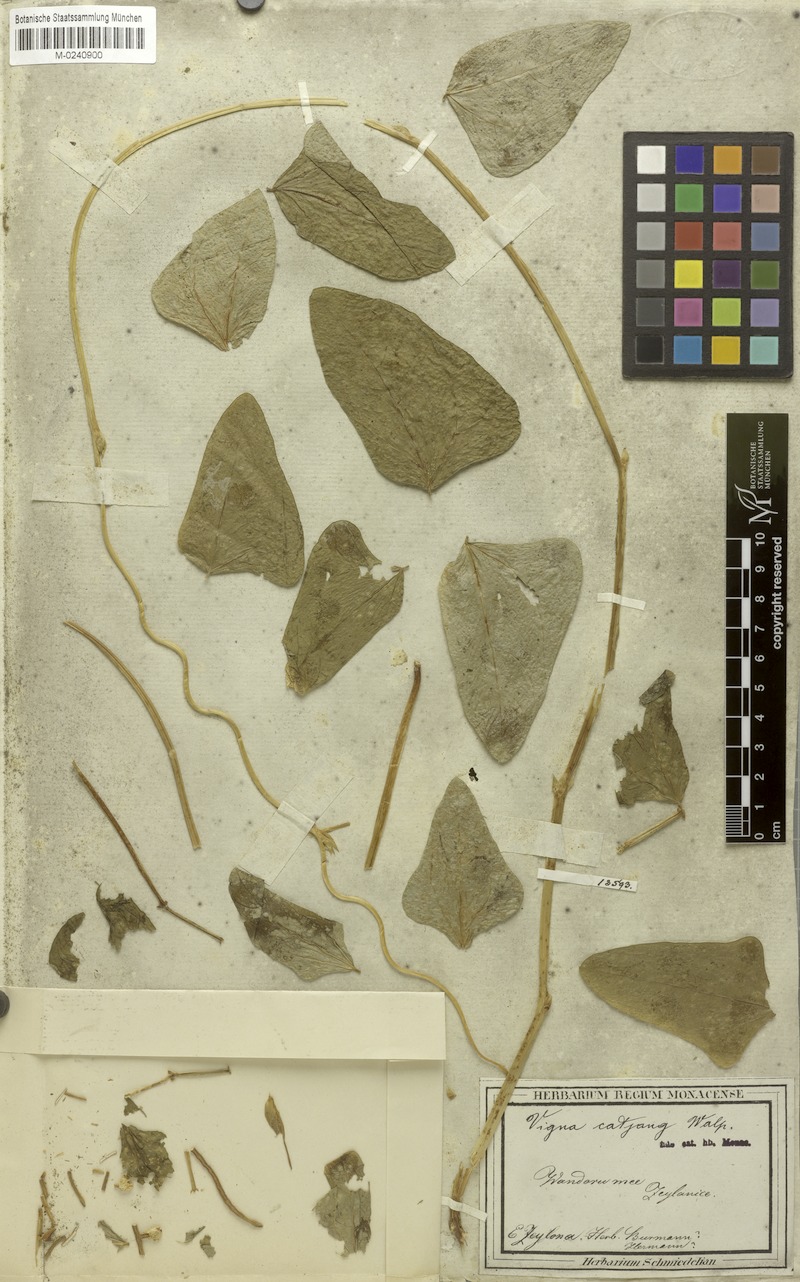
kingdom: Plantae
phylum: Tracheophyta
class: Magnoliopsida
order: Fabales
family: Fabaceae
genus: Vigna
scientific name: Vigna unguiculata
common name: Cowpea
